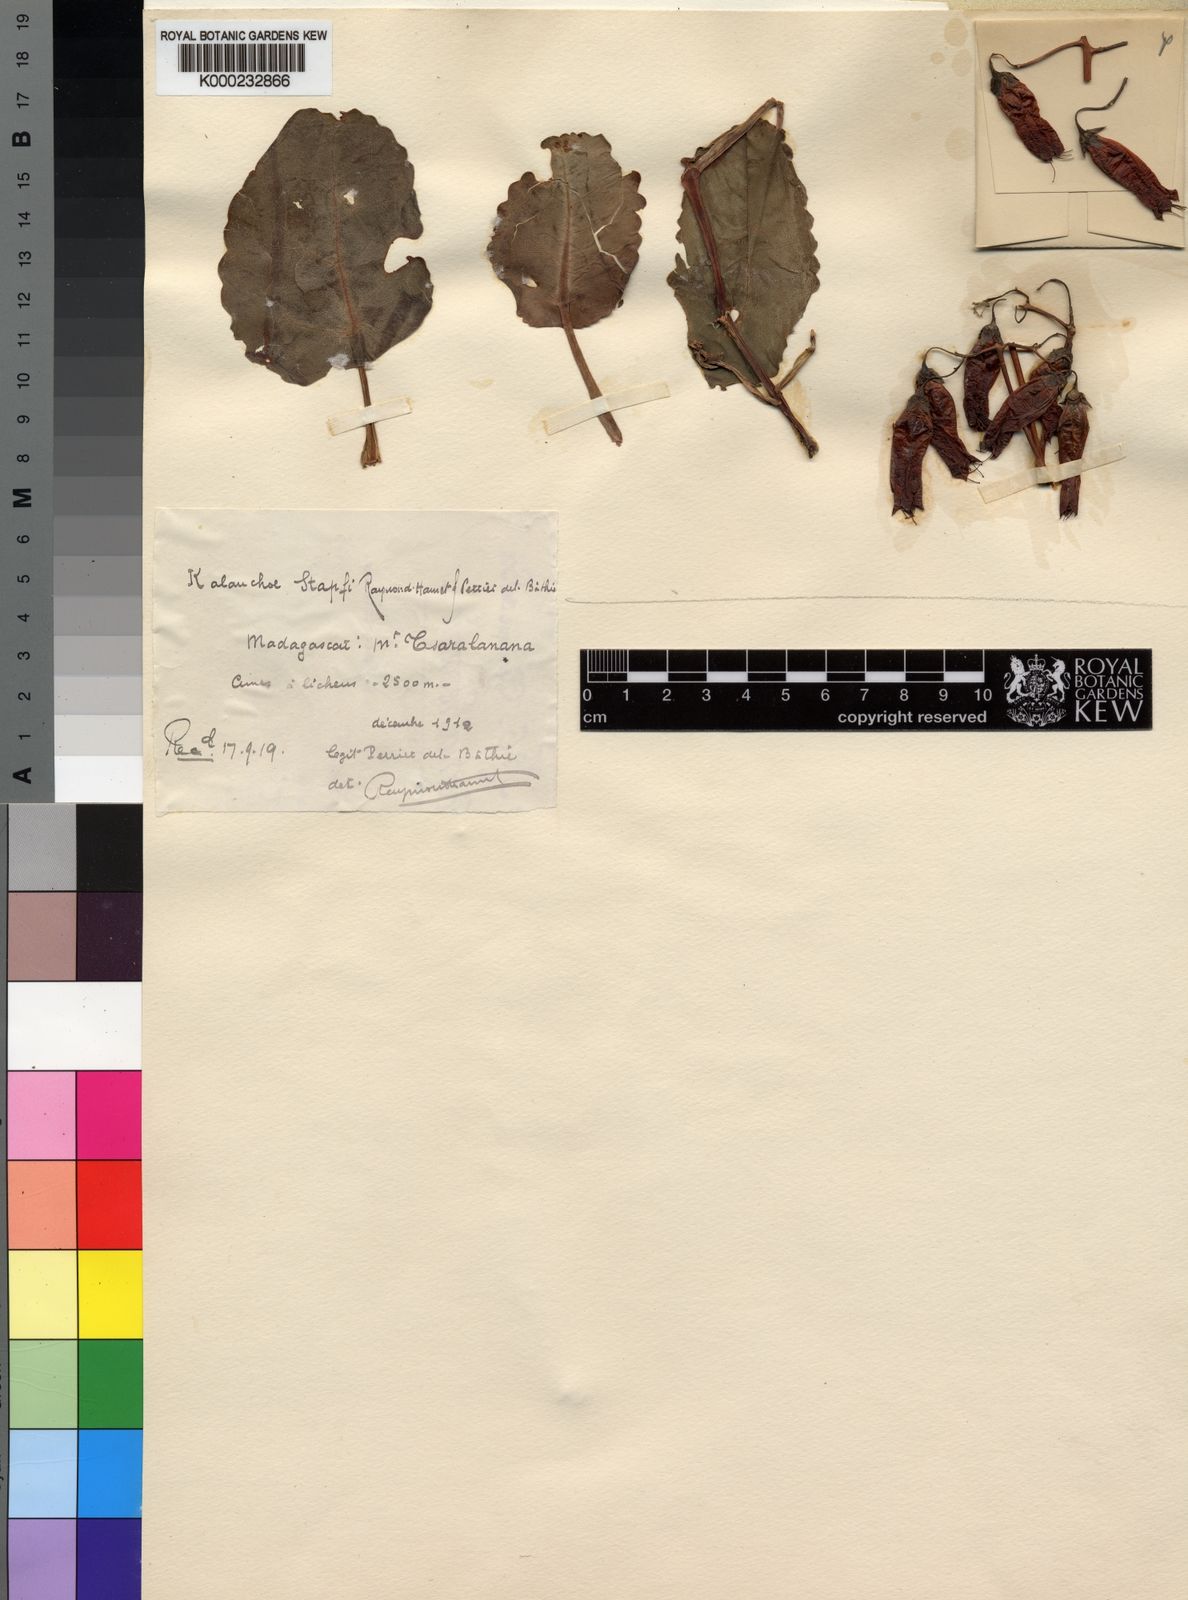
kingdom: Plantae
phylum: Tracheophyta
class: Magnoliopsida
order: Saxifragales
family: Crassulaceae
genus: Kalanchoe
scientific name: Kalanchoe peltata
